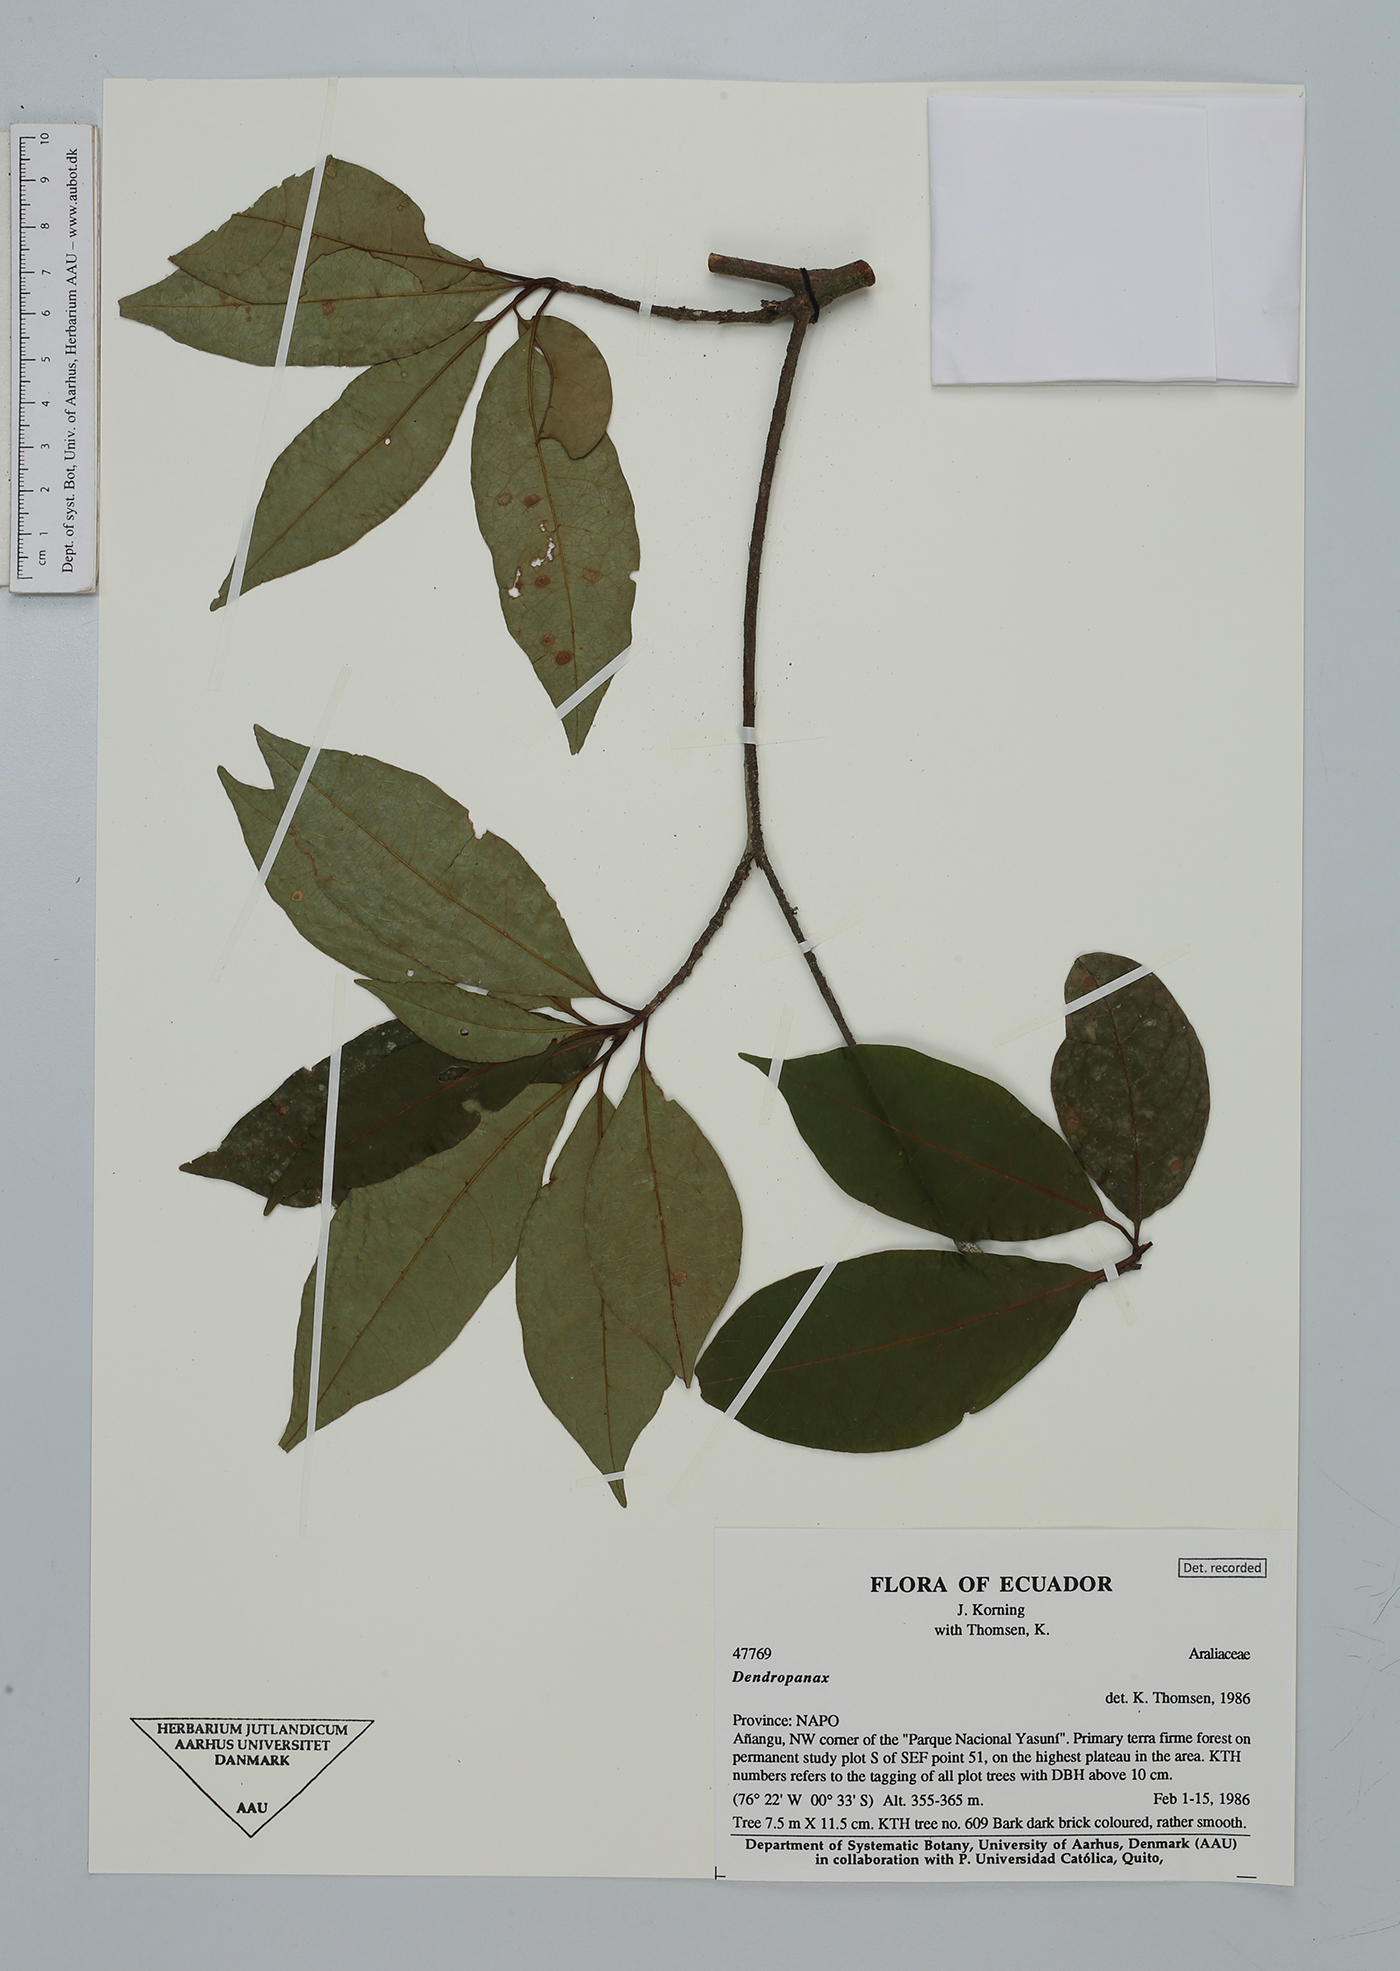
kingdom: Plantae
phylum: Tracheophyta
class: Magnoliopsida
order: Apiales
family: Araliaceae
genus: Dendropanax
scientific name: Dendropanax
